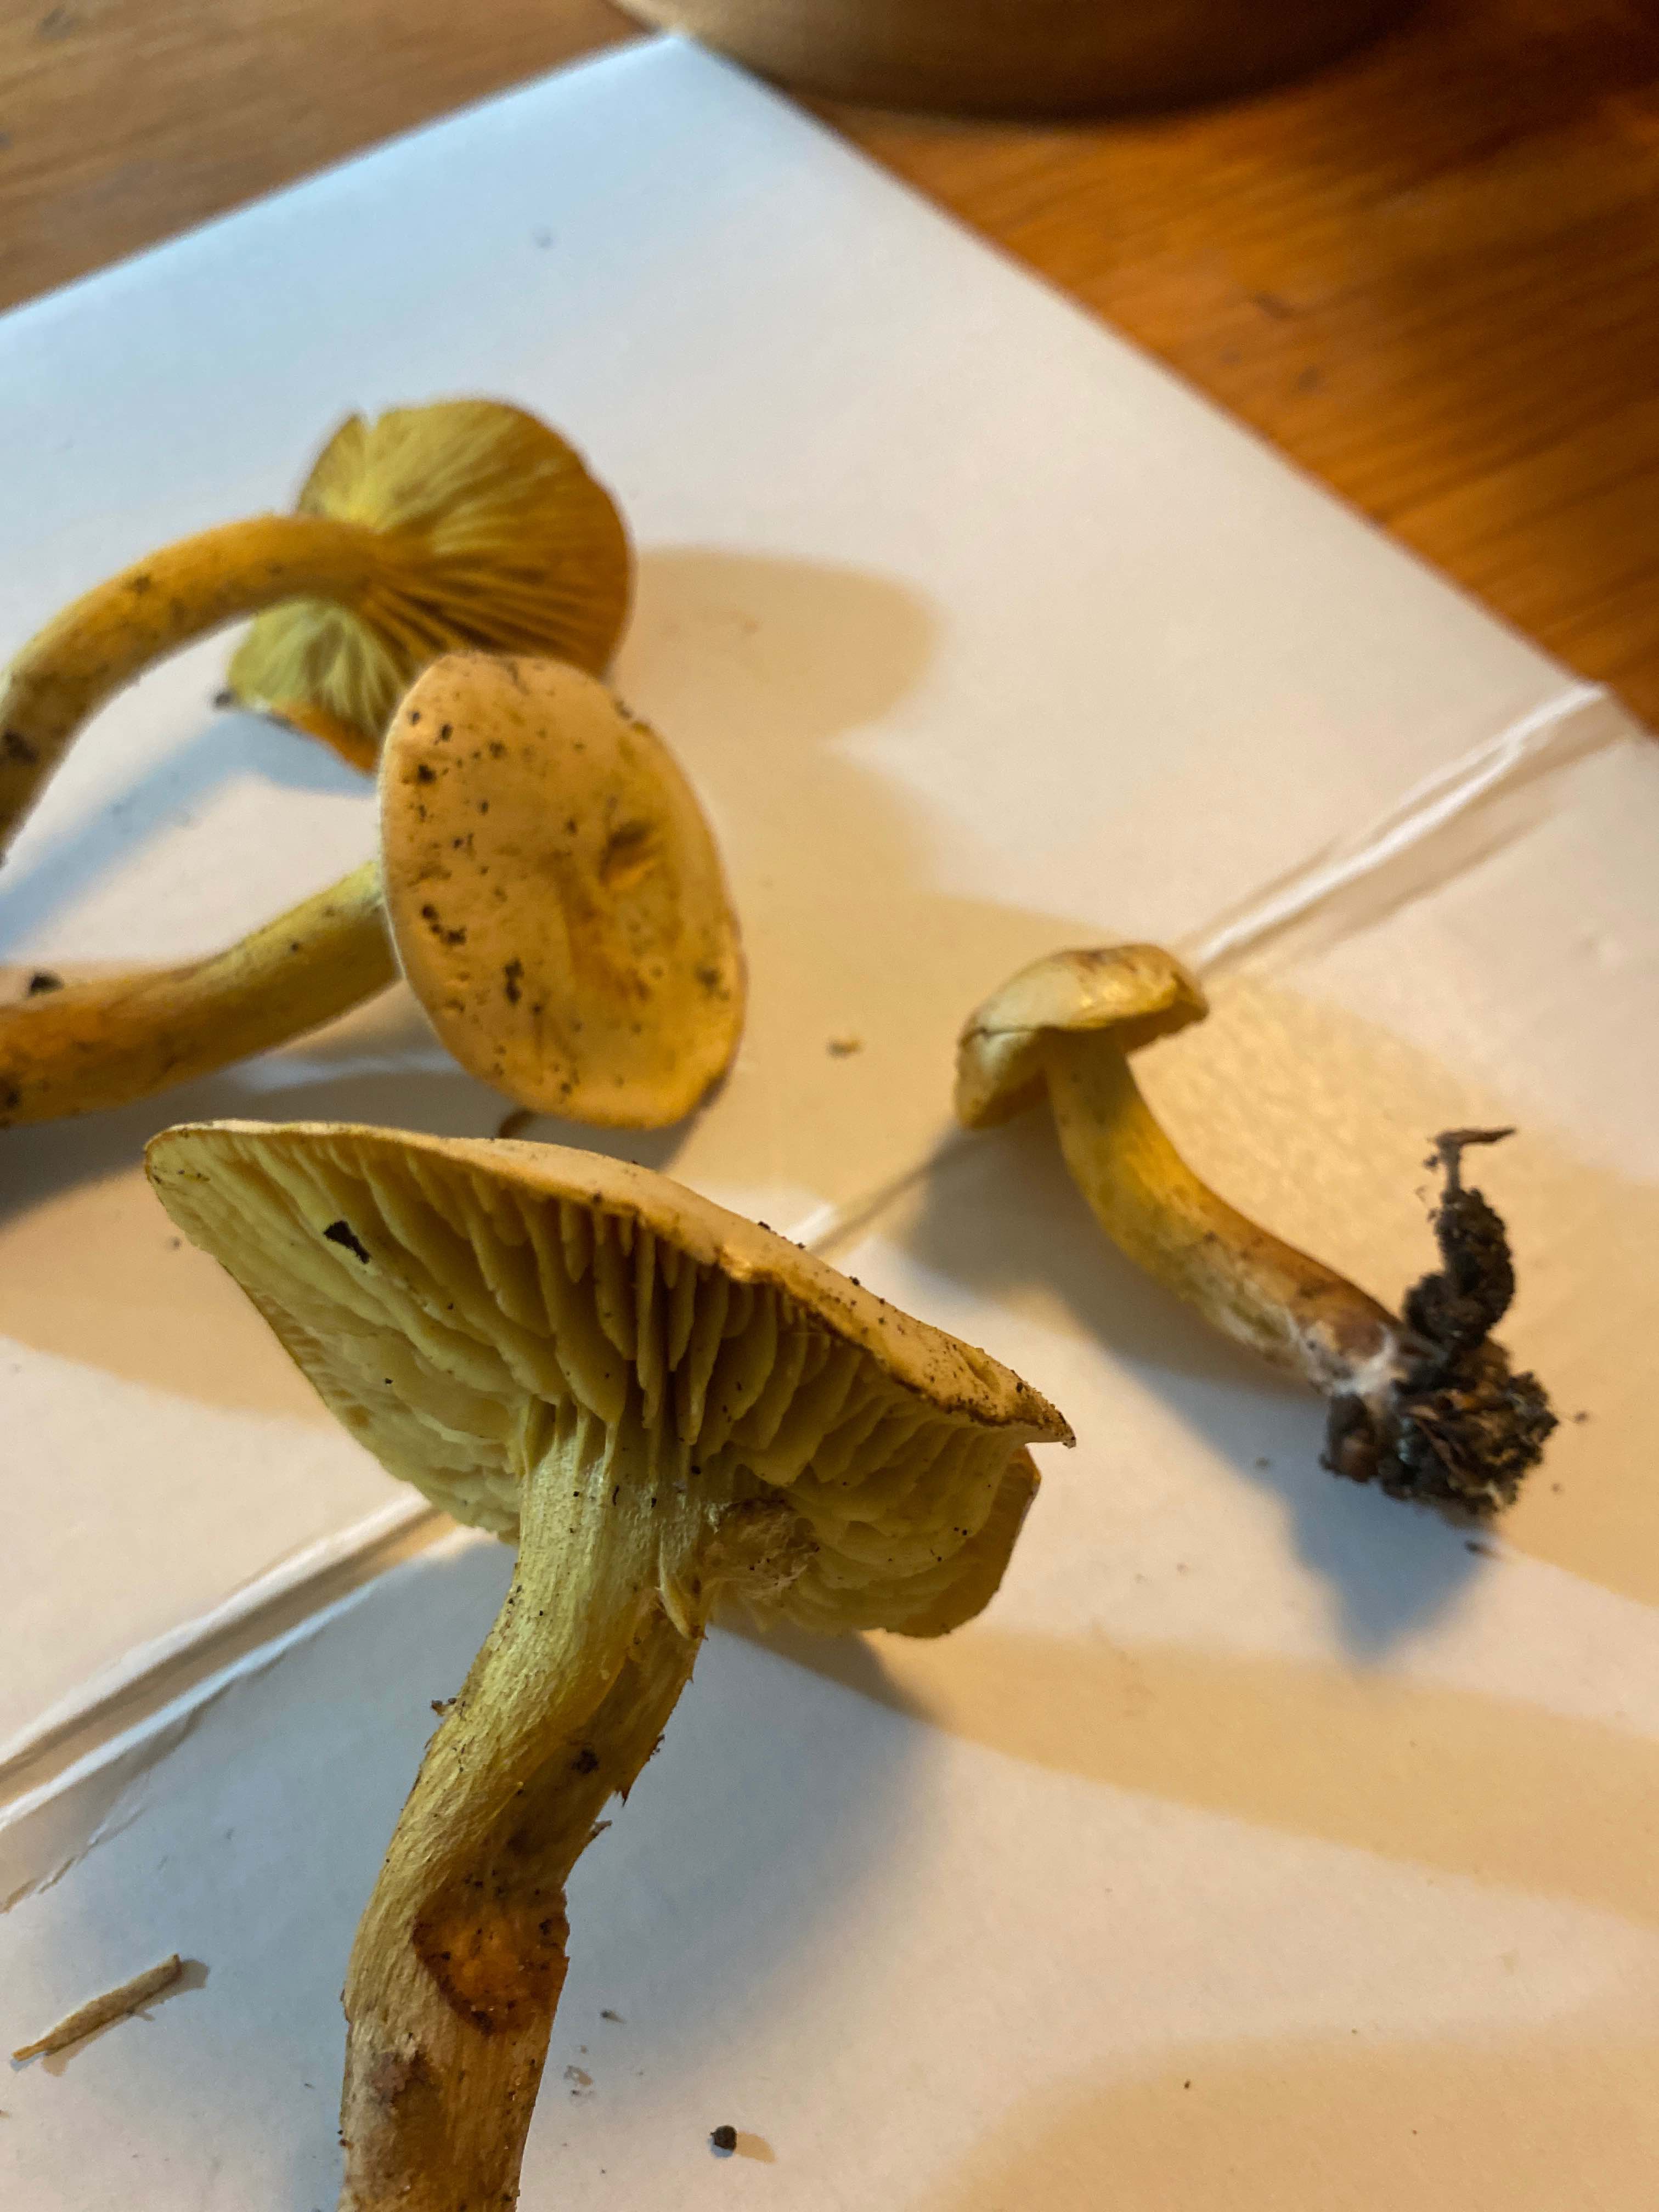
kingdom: Fungi
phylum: Basidiomycota
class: Agaricomycetes
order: Agaricales
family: Tricholomataceae
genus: Tricholoma
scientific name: Tricholoma sulphureum
